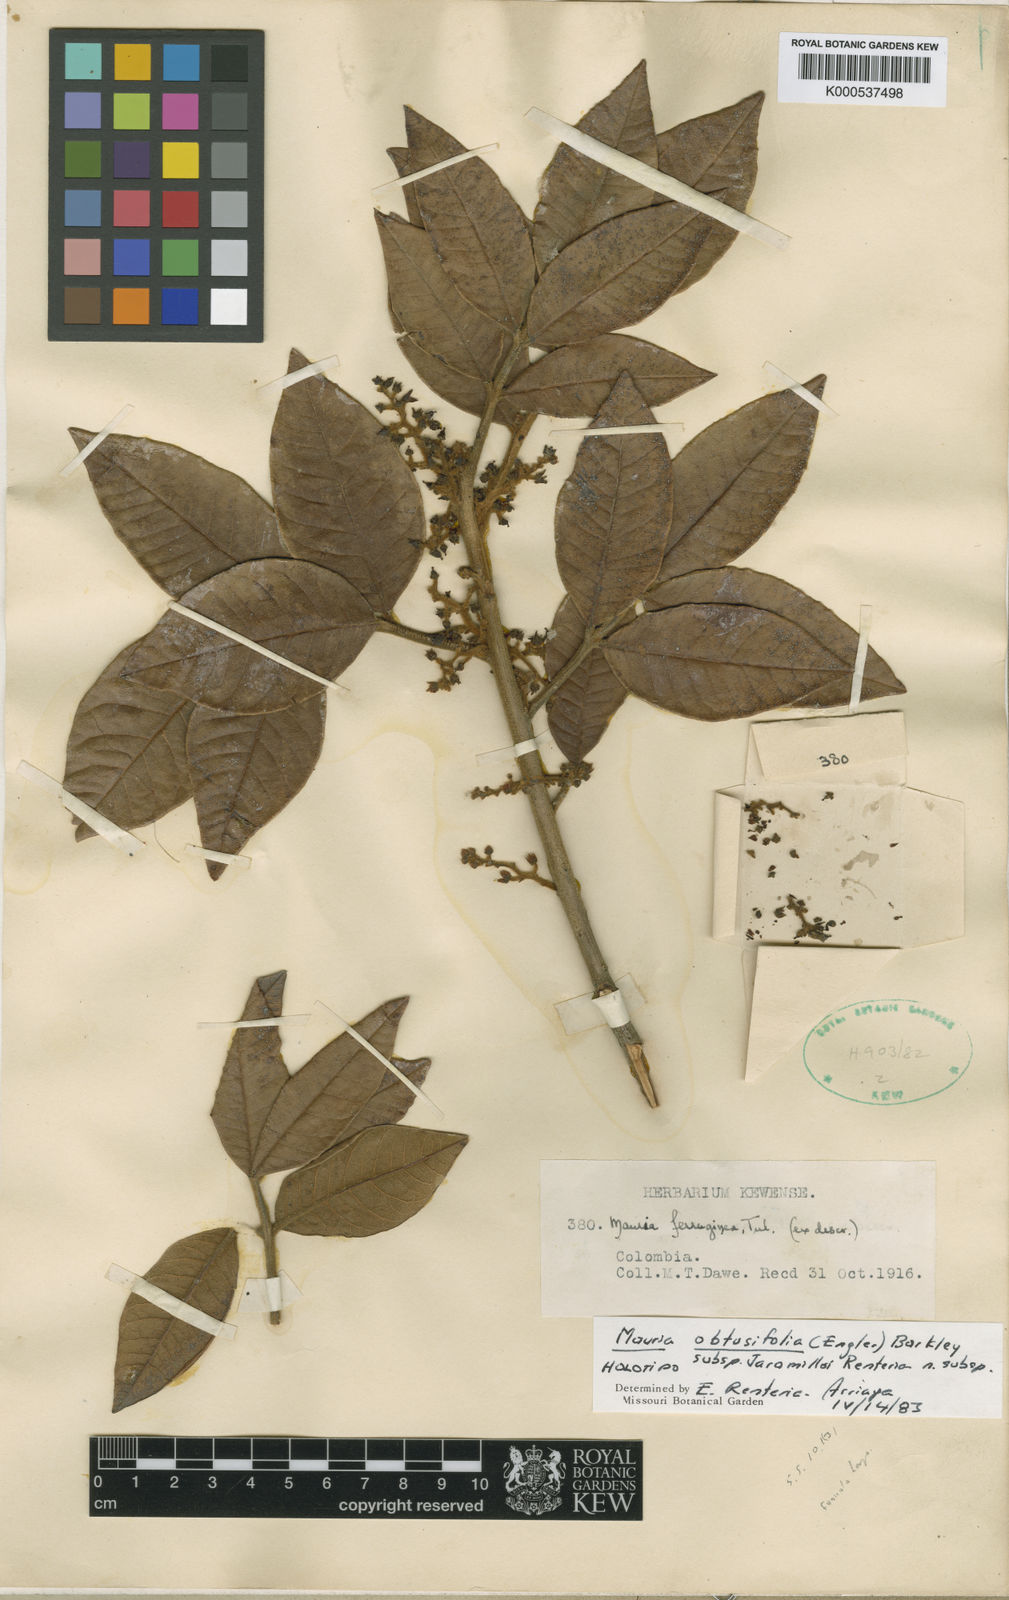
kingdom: Plantae
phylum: Tracheophyta
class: Magnoliopsida
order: Sapindales
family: Anacardiaceae
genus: Mauria
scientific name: Mauria heterophylla
